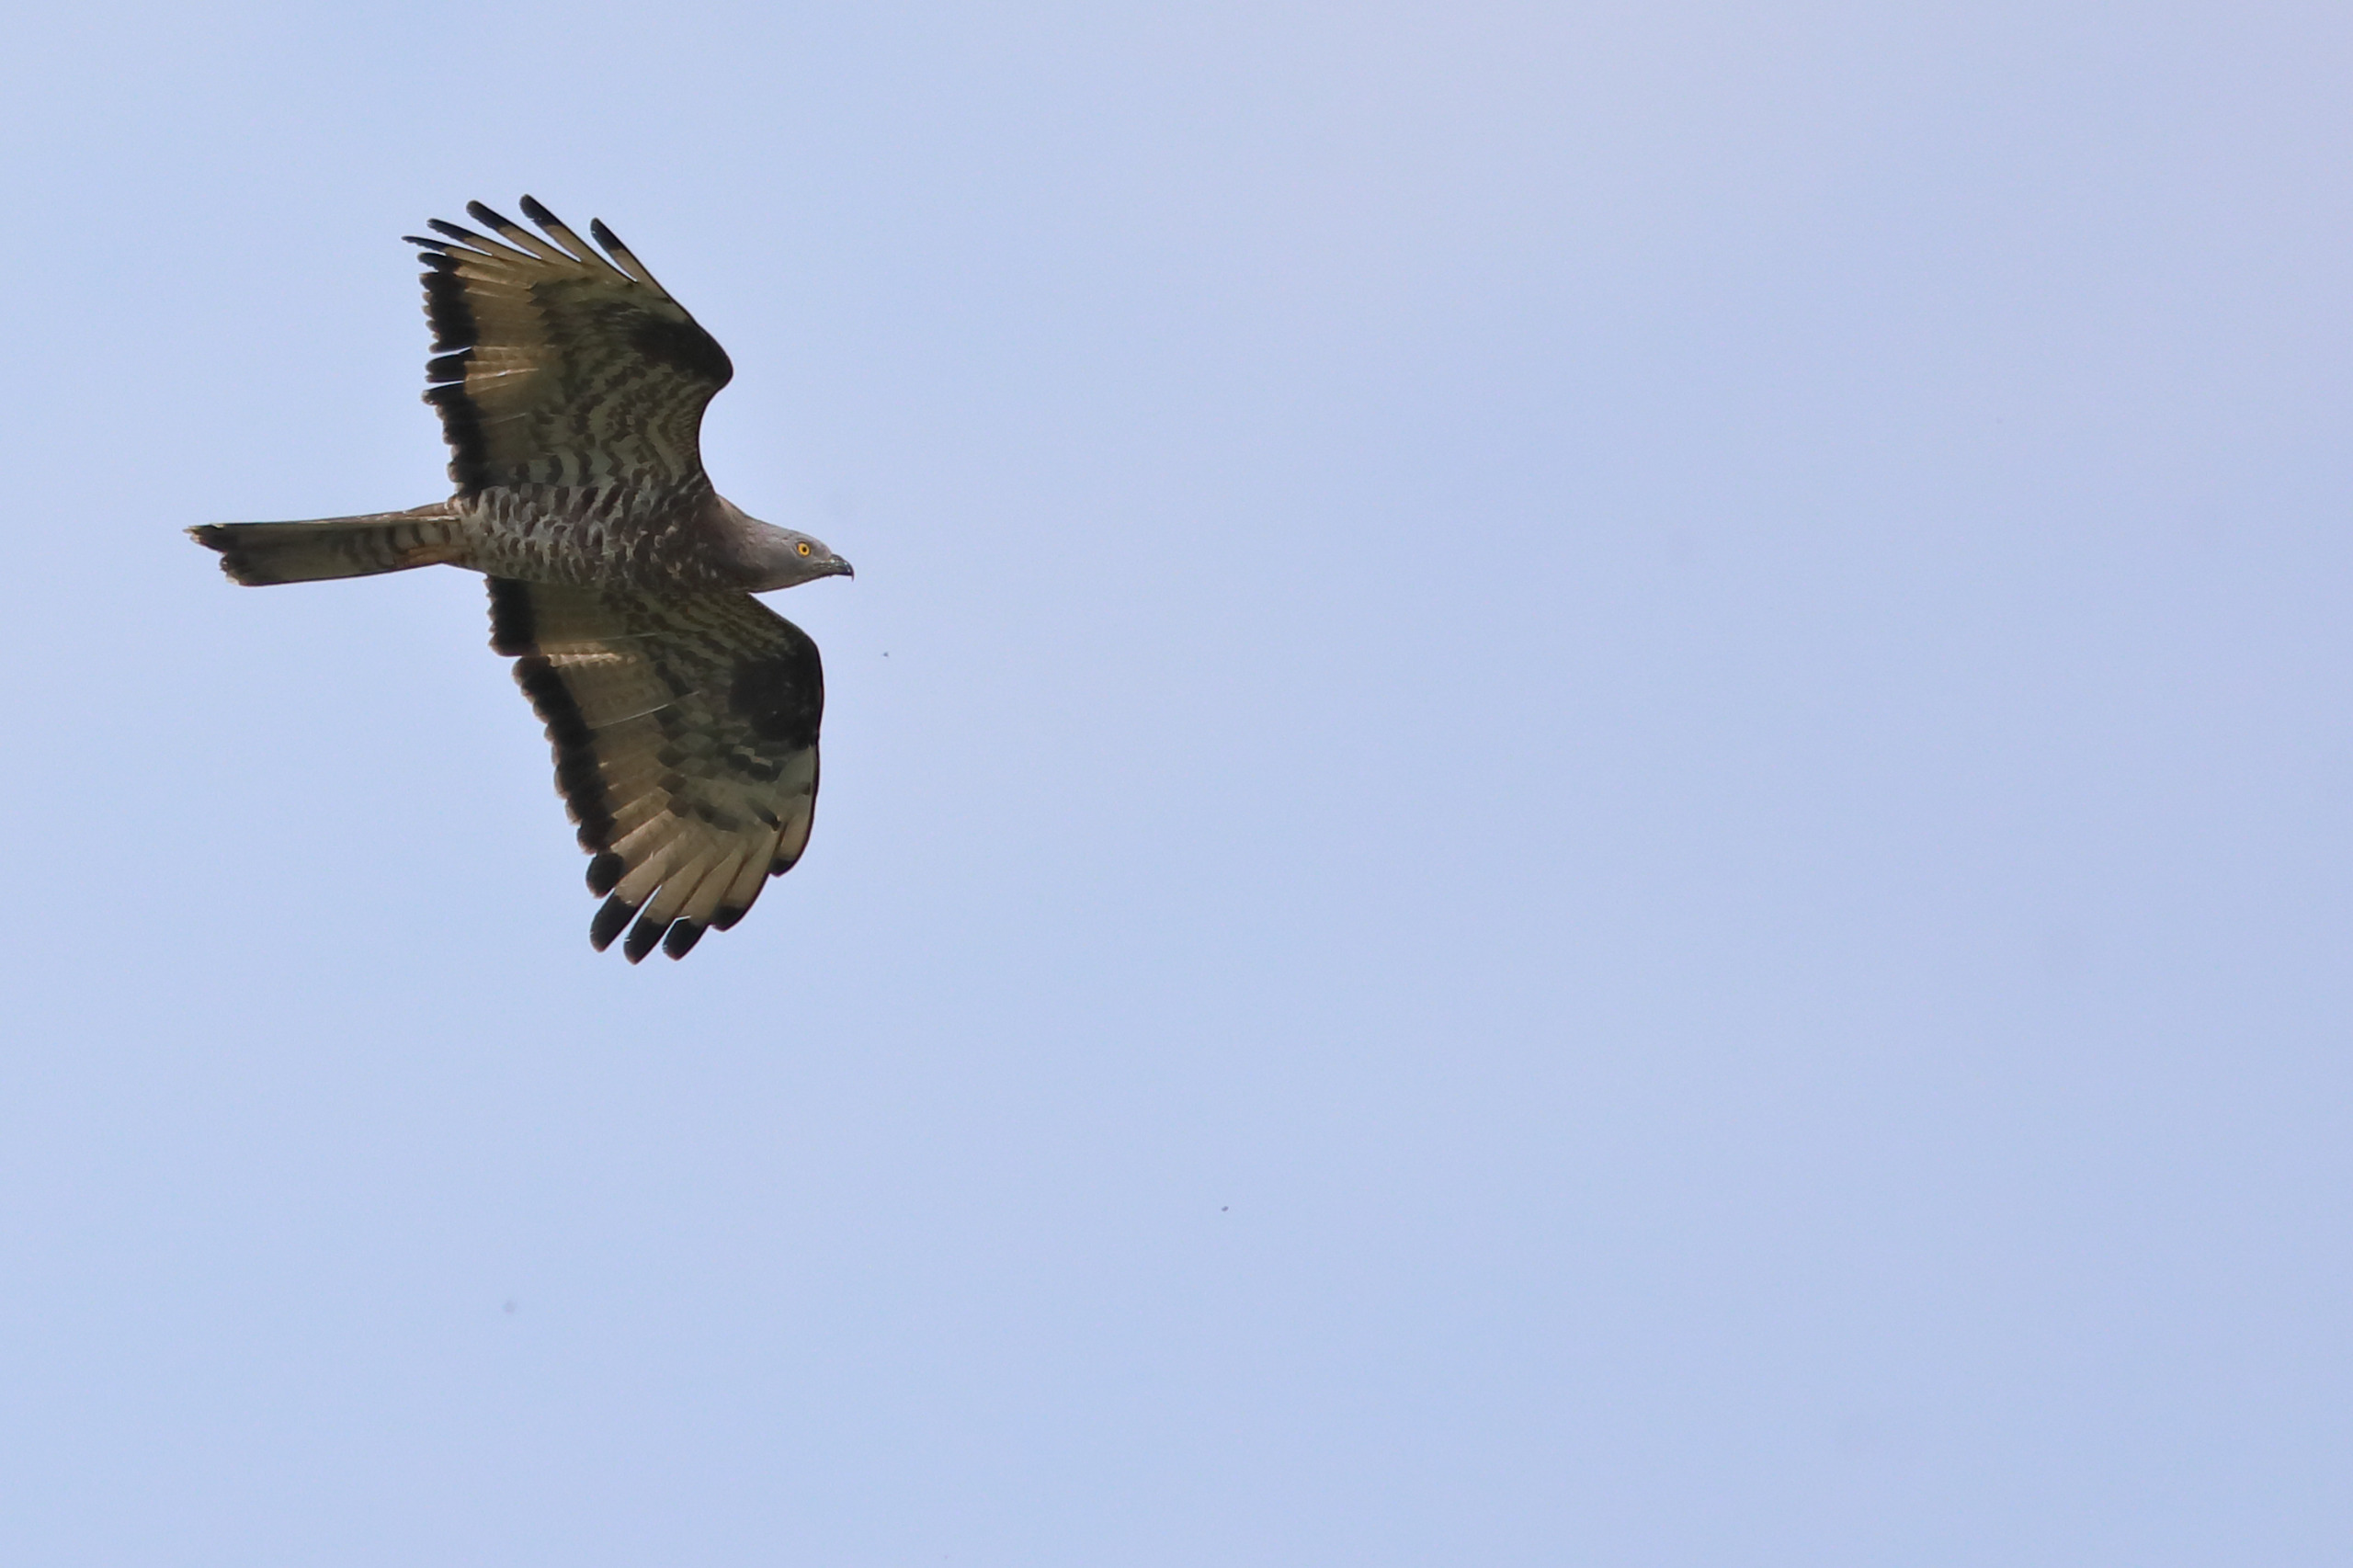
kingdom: Animalia
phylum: Chordata
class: Aves
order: Accipitriformes
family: Accipitridae
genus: Pernis
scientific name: Pernis apivorus
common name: Hvepsevåge
